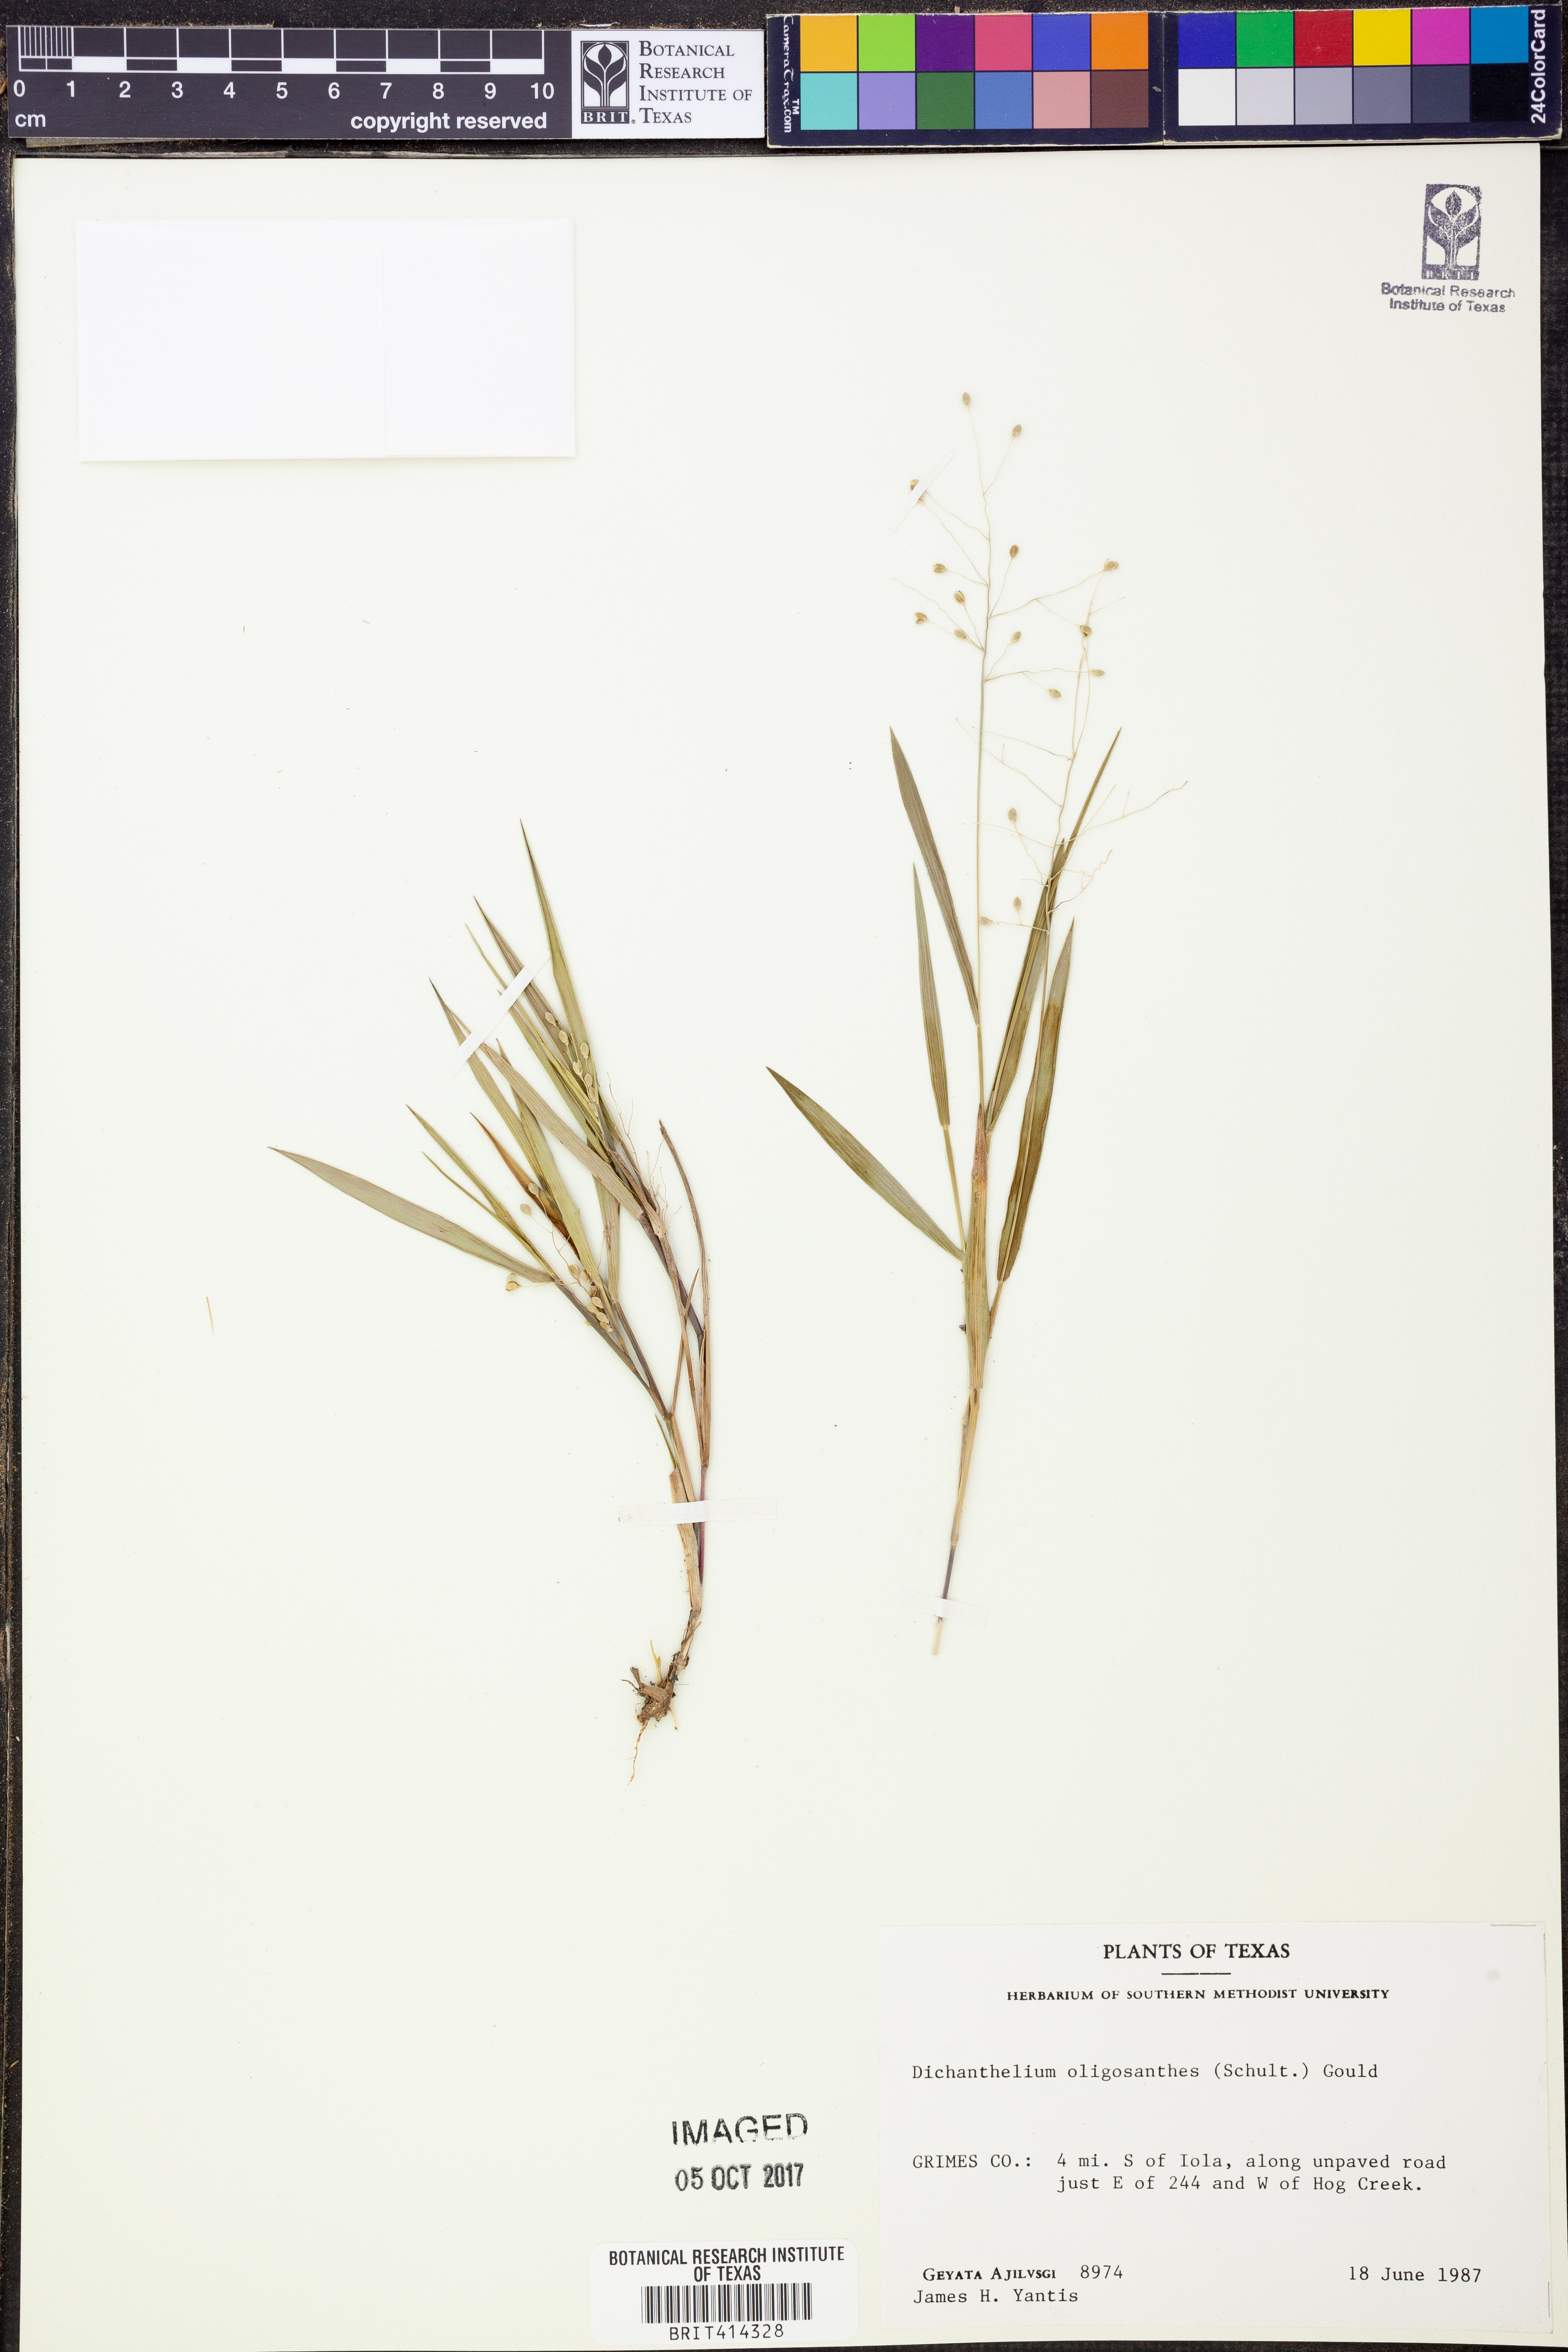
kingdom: Plantae
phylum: Tracheophyta
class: Liliopsida
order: Poales
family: Poaceae
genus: Dichanthelium
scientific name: Dichanthelium oligosanthes
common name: Few-anther obscuregrass
